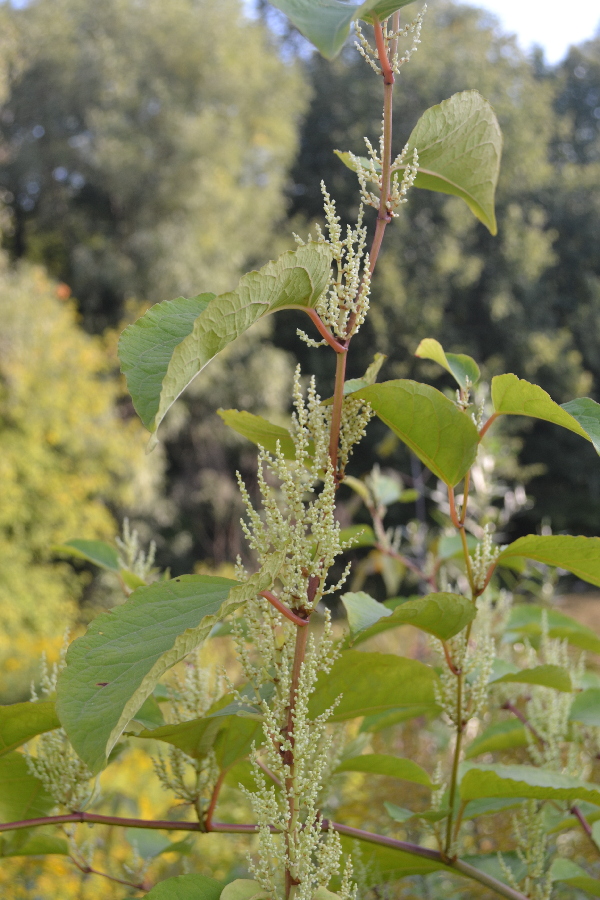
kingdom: Plantae
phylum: Tracheophyta
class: Magnoliopsida
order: Caryophyllales
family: Polygonaceae
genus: Reynoutria
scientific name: Reynoutria sachalinensis
